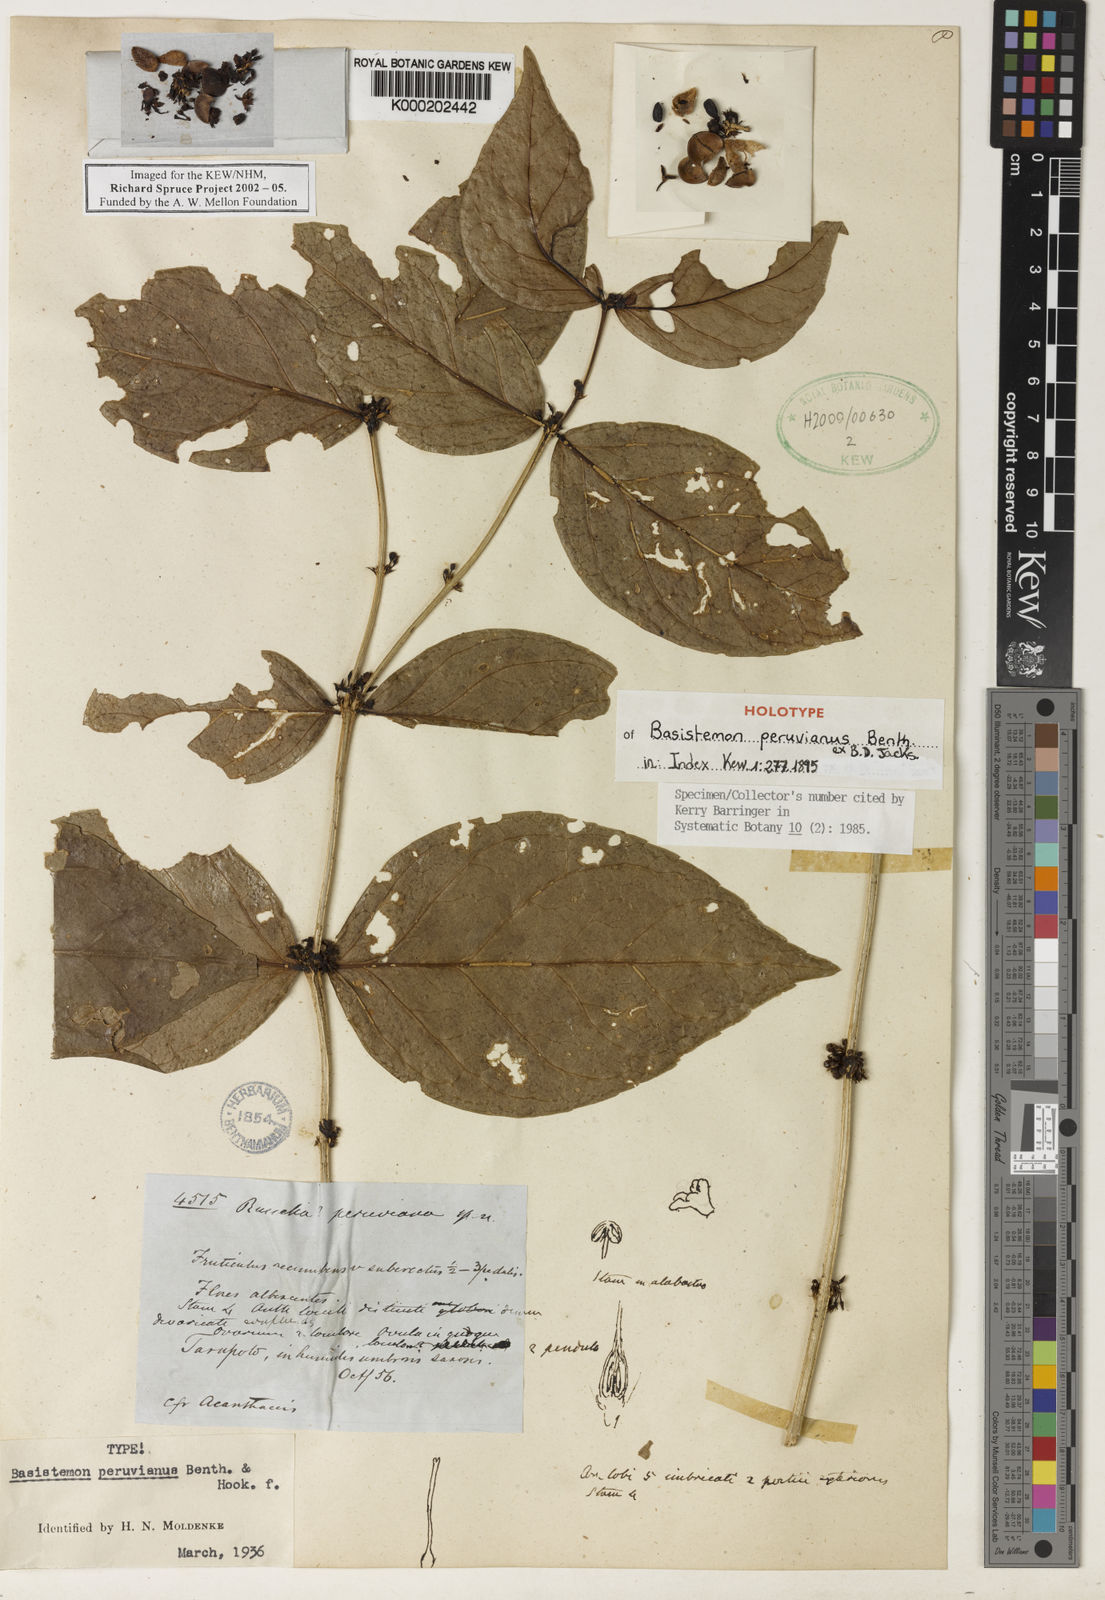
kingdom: Plantae
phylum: Tracheophyta
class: Magnoliopsida
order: Lamiales
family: Plantaginaceae
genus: Basistemon
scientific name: Basistemon peruvianus
